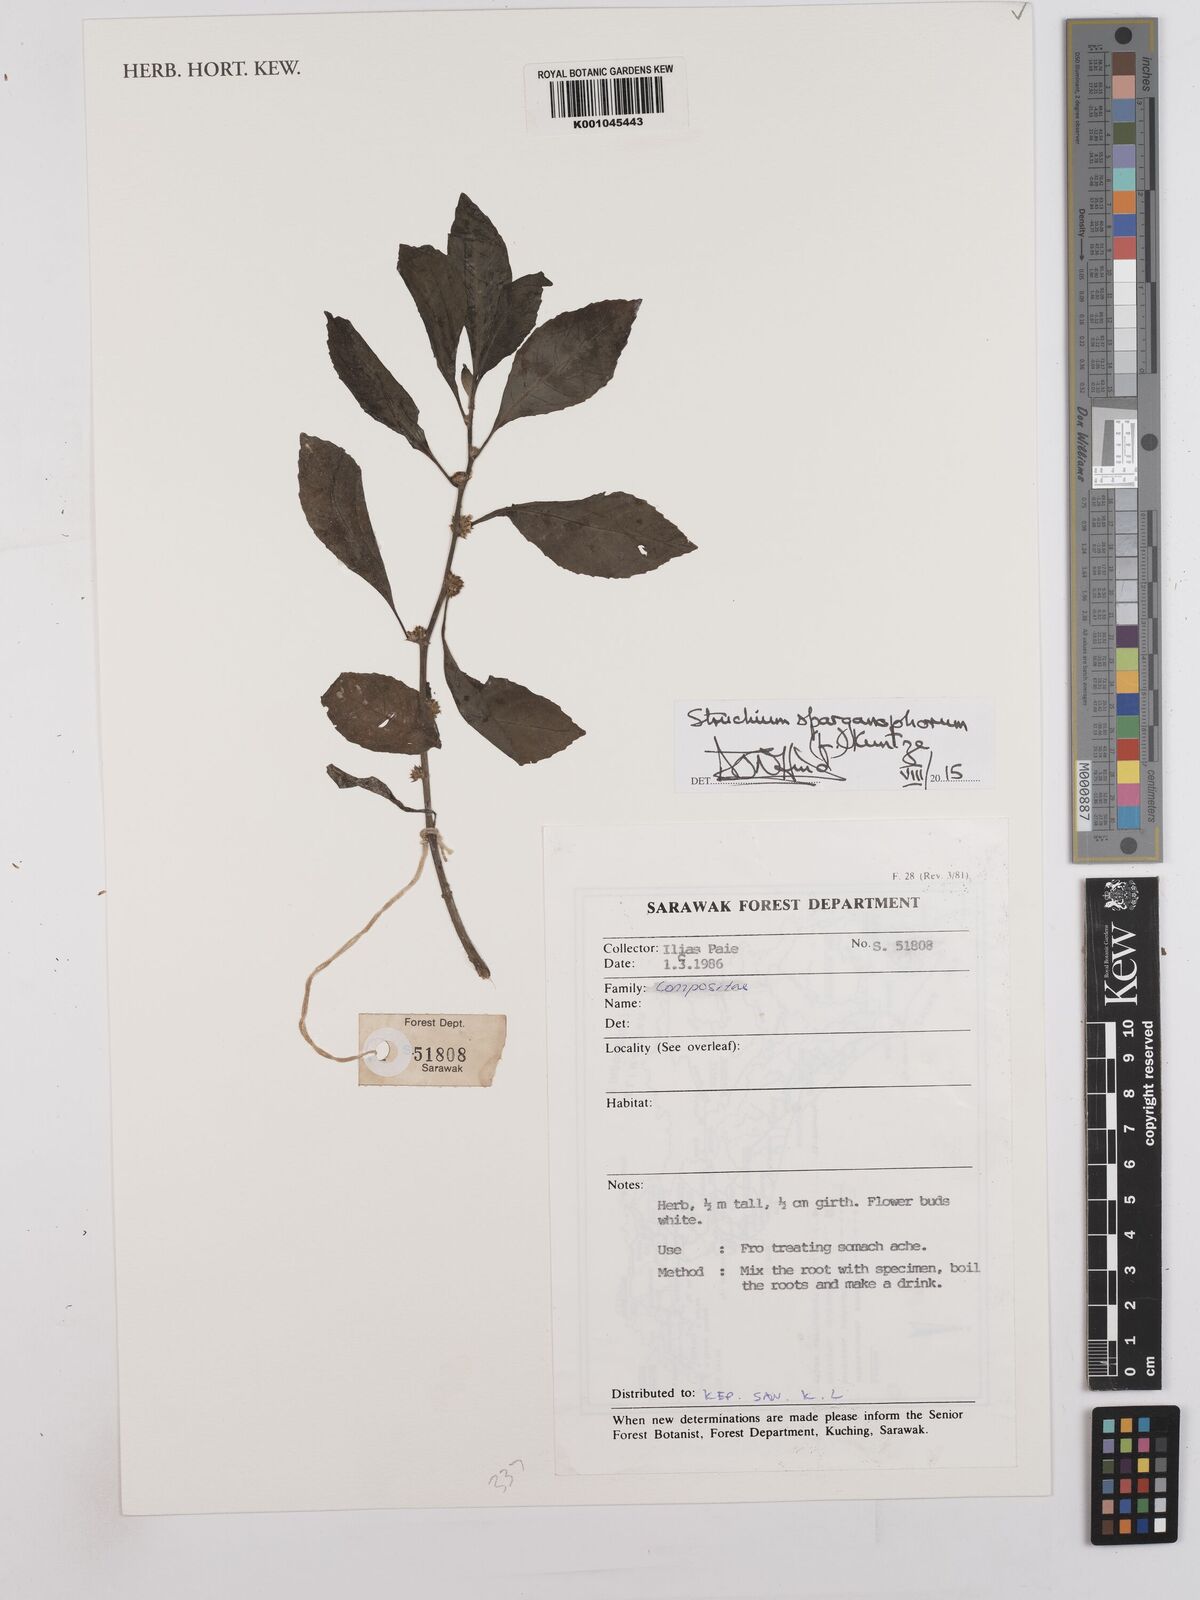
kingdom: Plantae
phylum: Tracheophyta
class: Magnoliopsida
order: Asterales
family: Asteraceae
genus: Struchium
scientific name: Struchium sparganophorum
